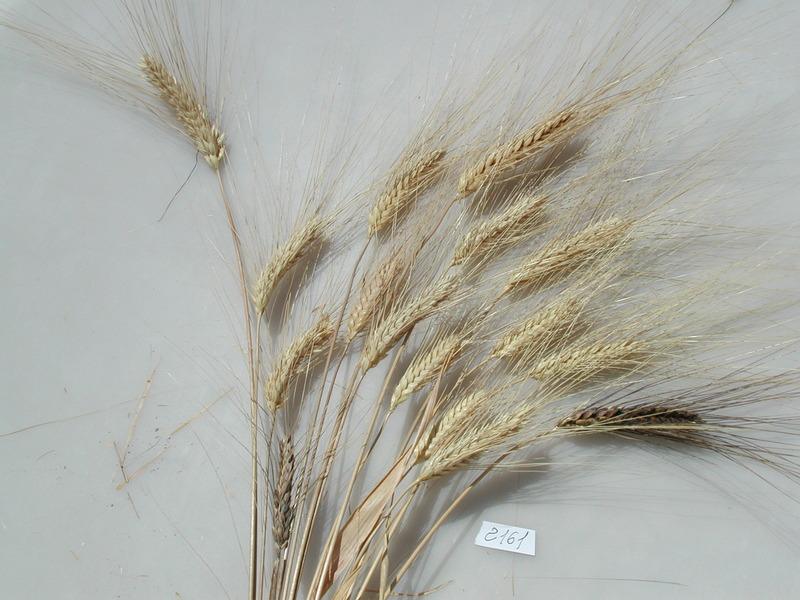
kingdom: Plantae
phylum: Tracheophyta
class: Liliopsida
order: Poales
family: Poaceae
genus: Triticum
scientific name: Triticum turgidum
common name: Wheat
